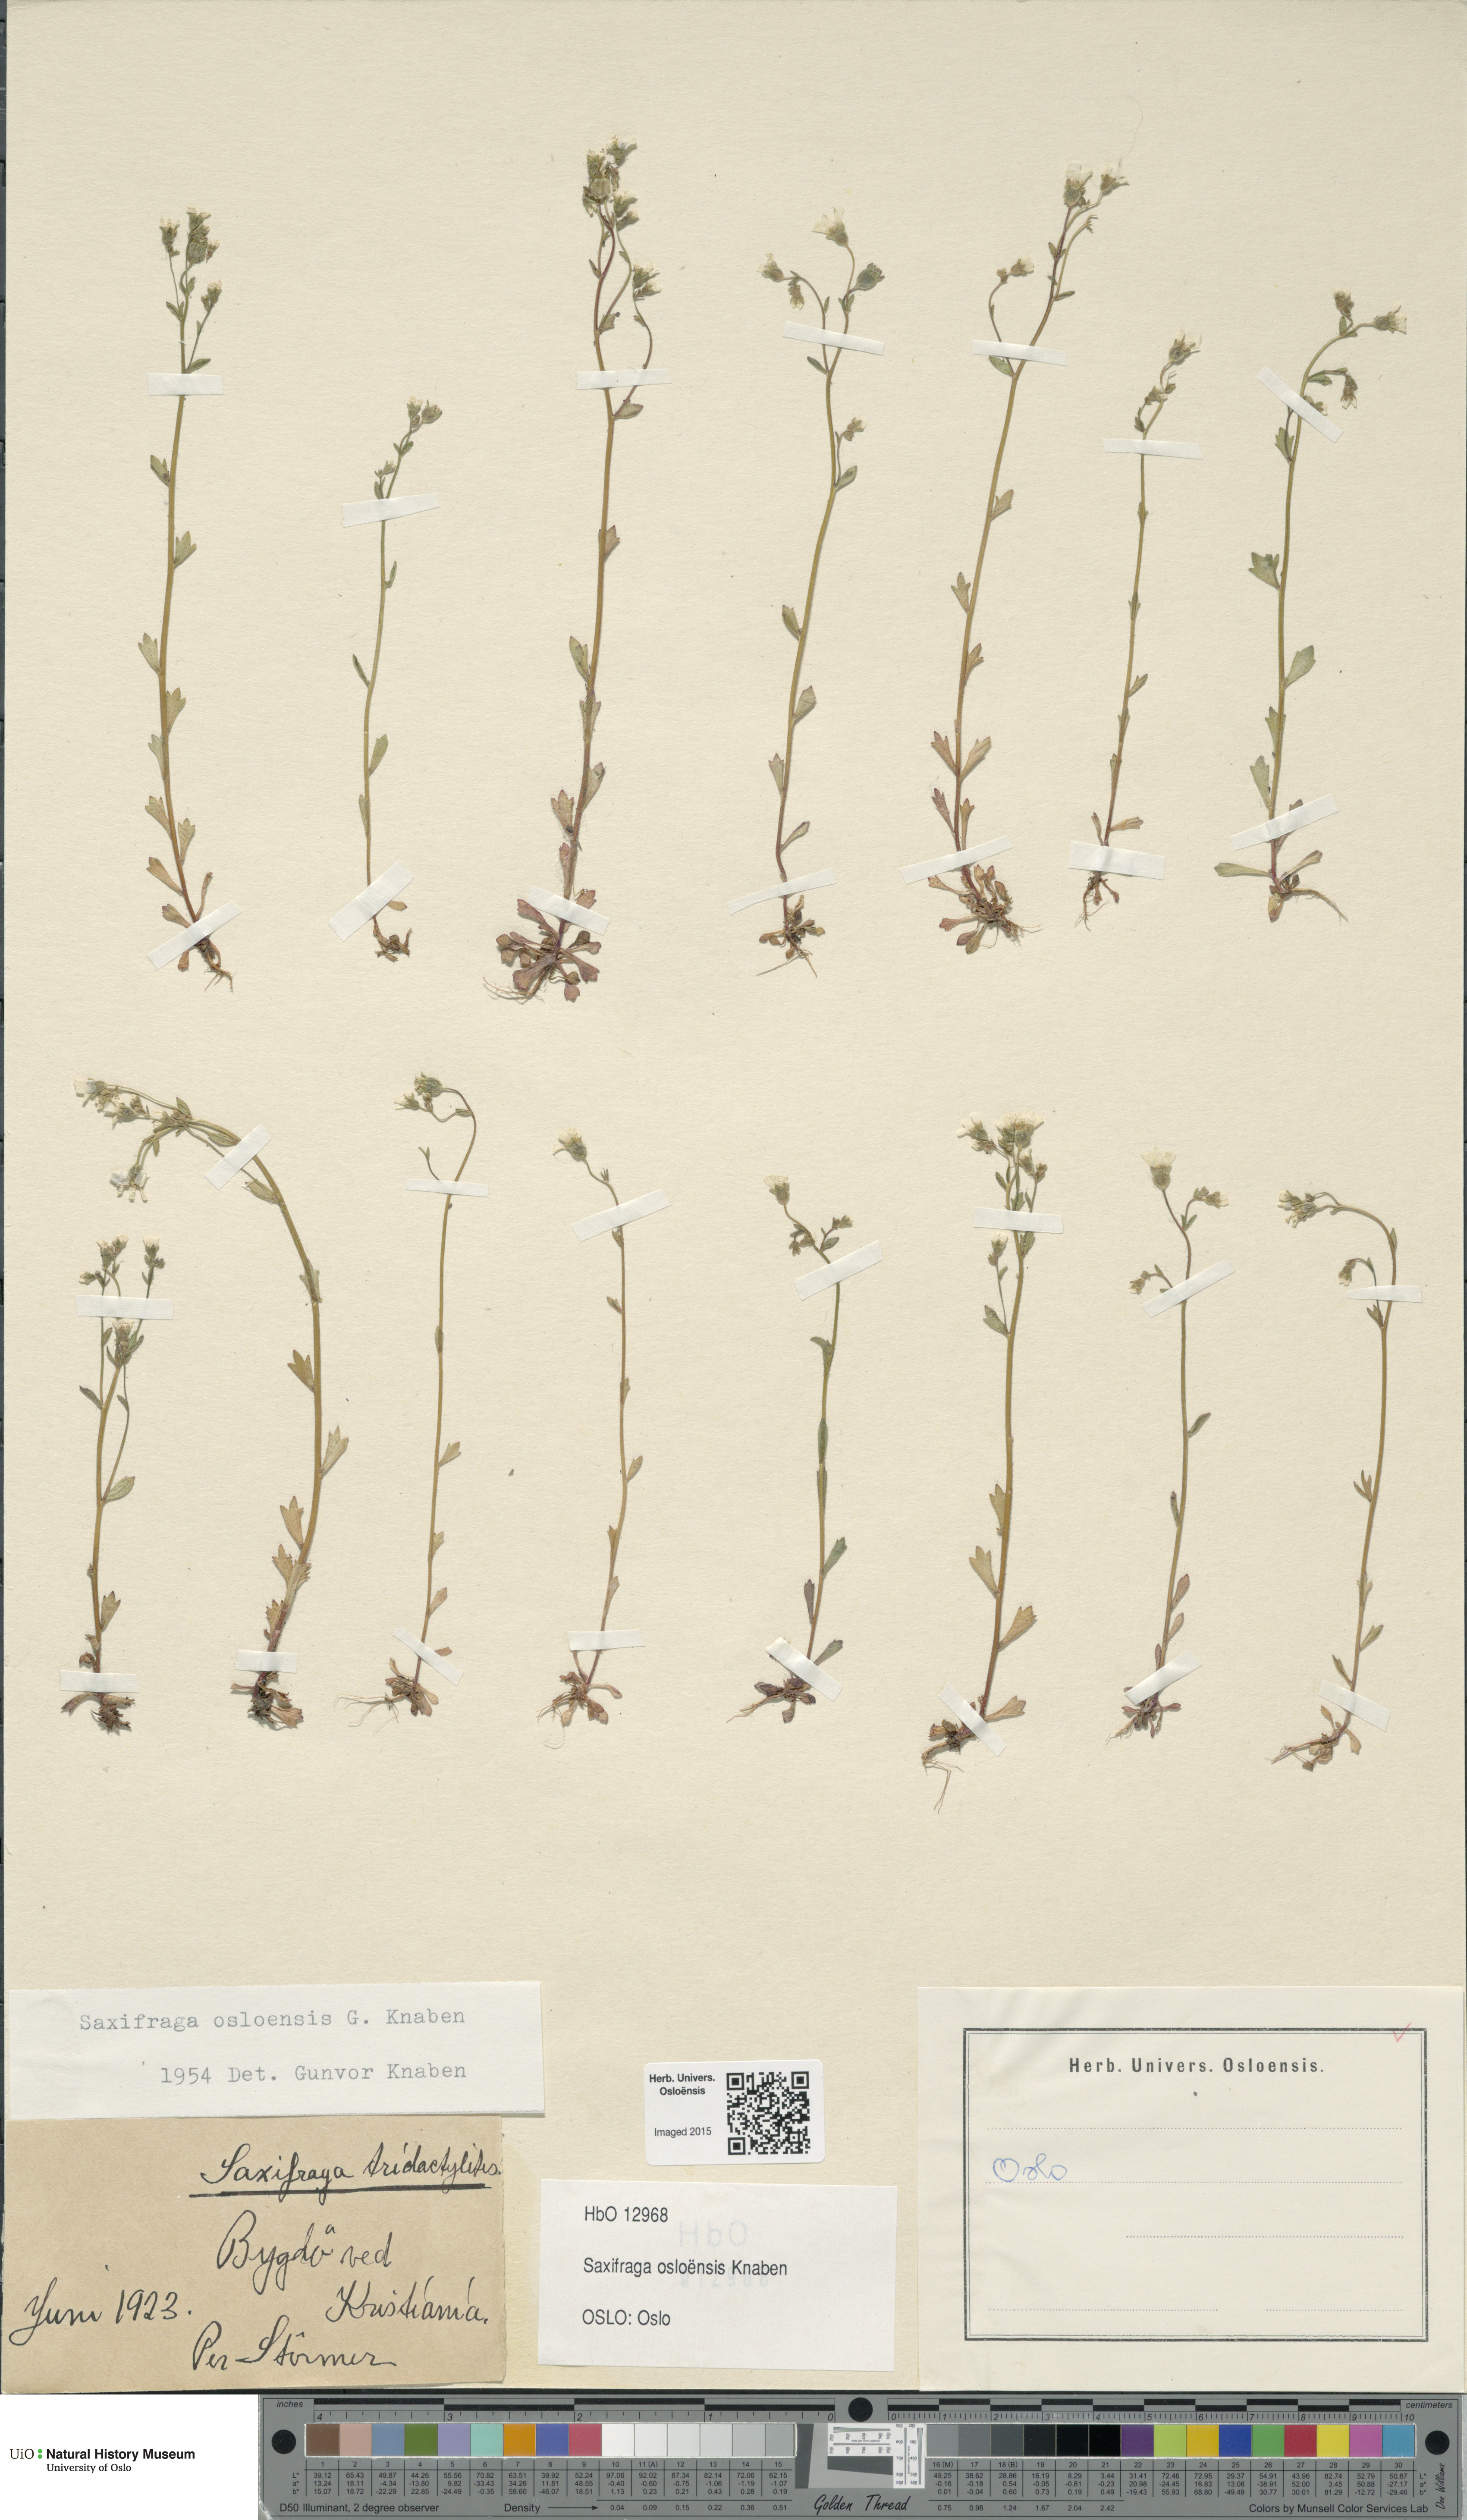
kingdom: Plantae
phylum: Tracheophyta
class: Magnoliopsida
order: Saxifragales
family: Saxifragaceae
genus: Saxifraga
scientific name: Saxifraga osloensis
